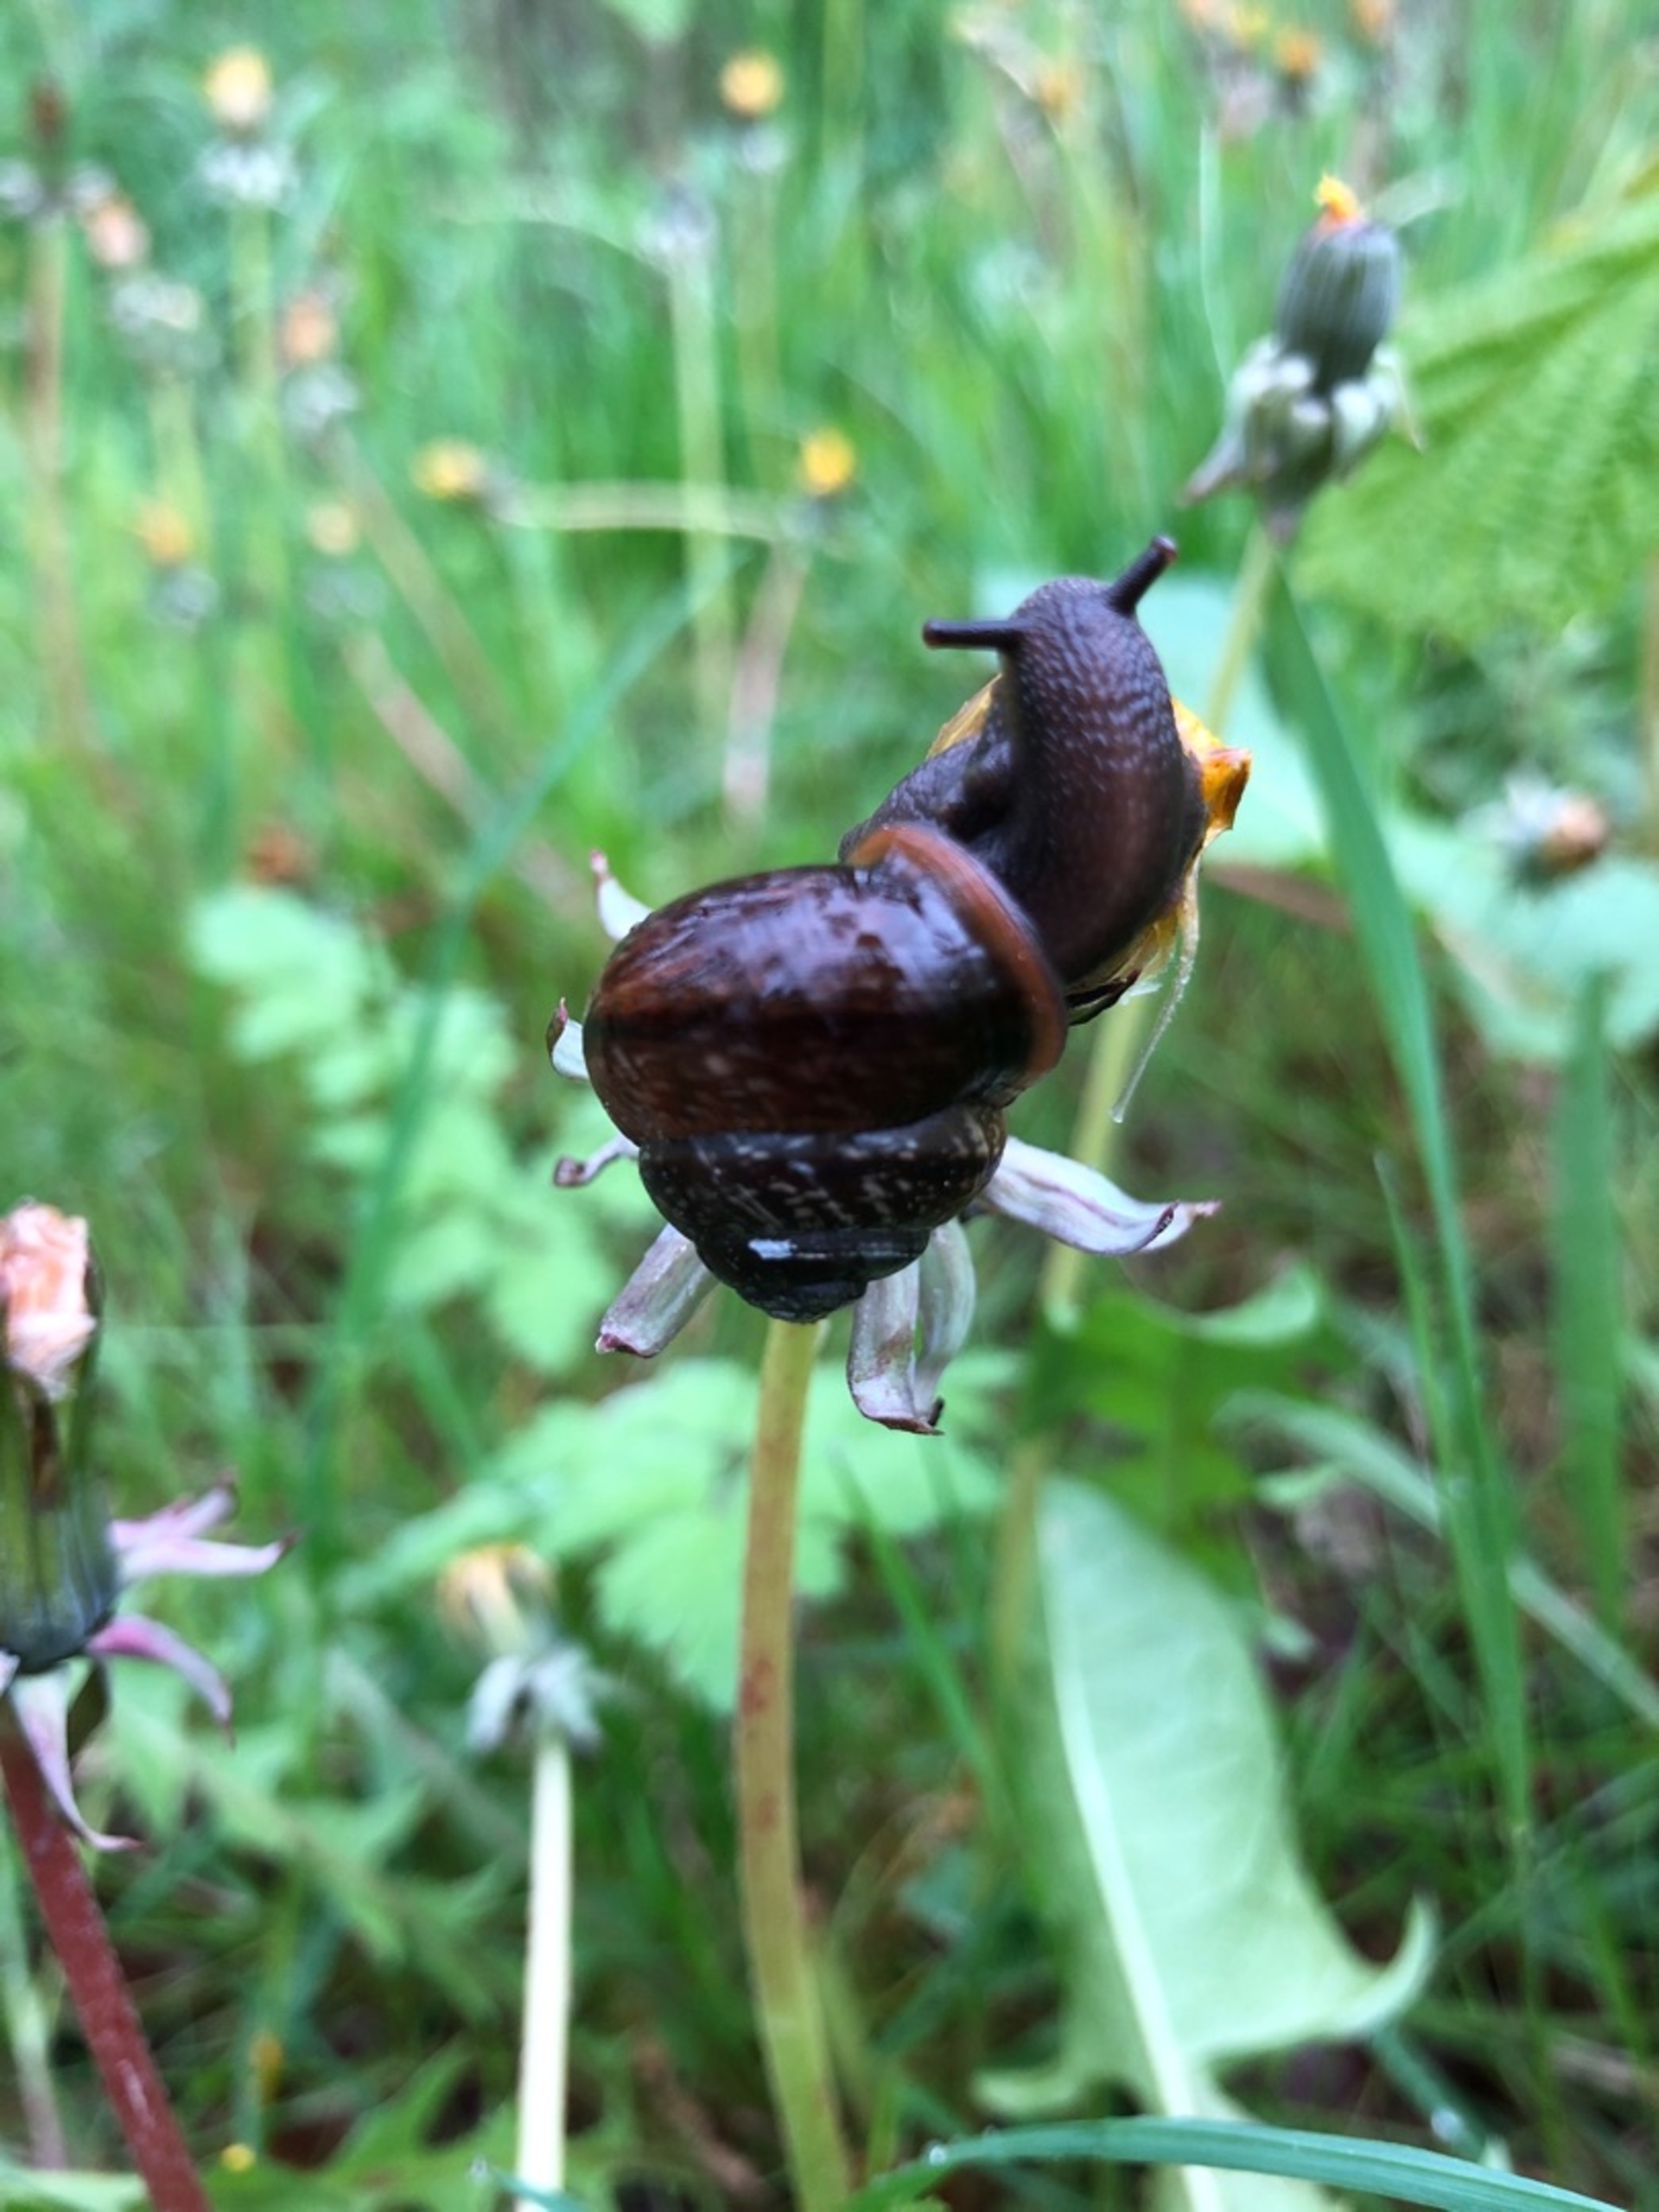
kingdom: Animalia
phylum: Mollusca
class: Gastropoda
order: Stylommatophora
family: Helicidae
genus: Arianta
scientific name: Arianta arbustorum
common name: Kratsnegl
